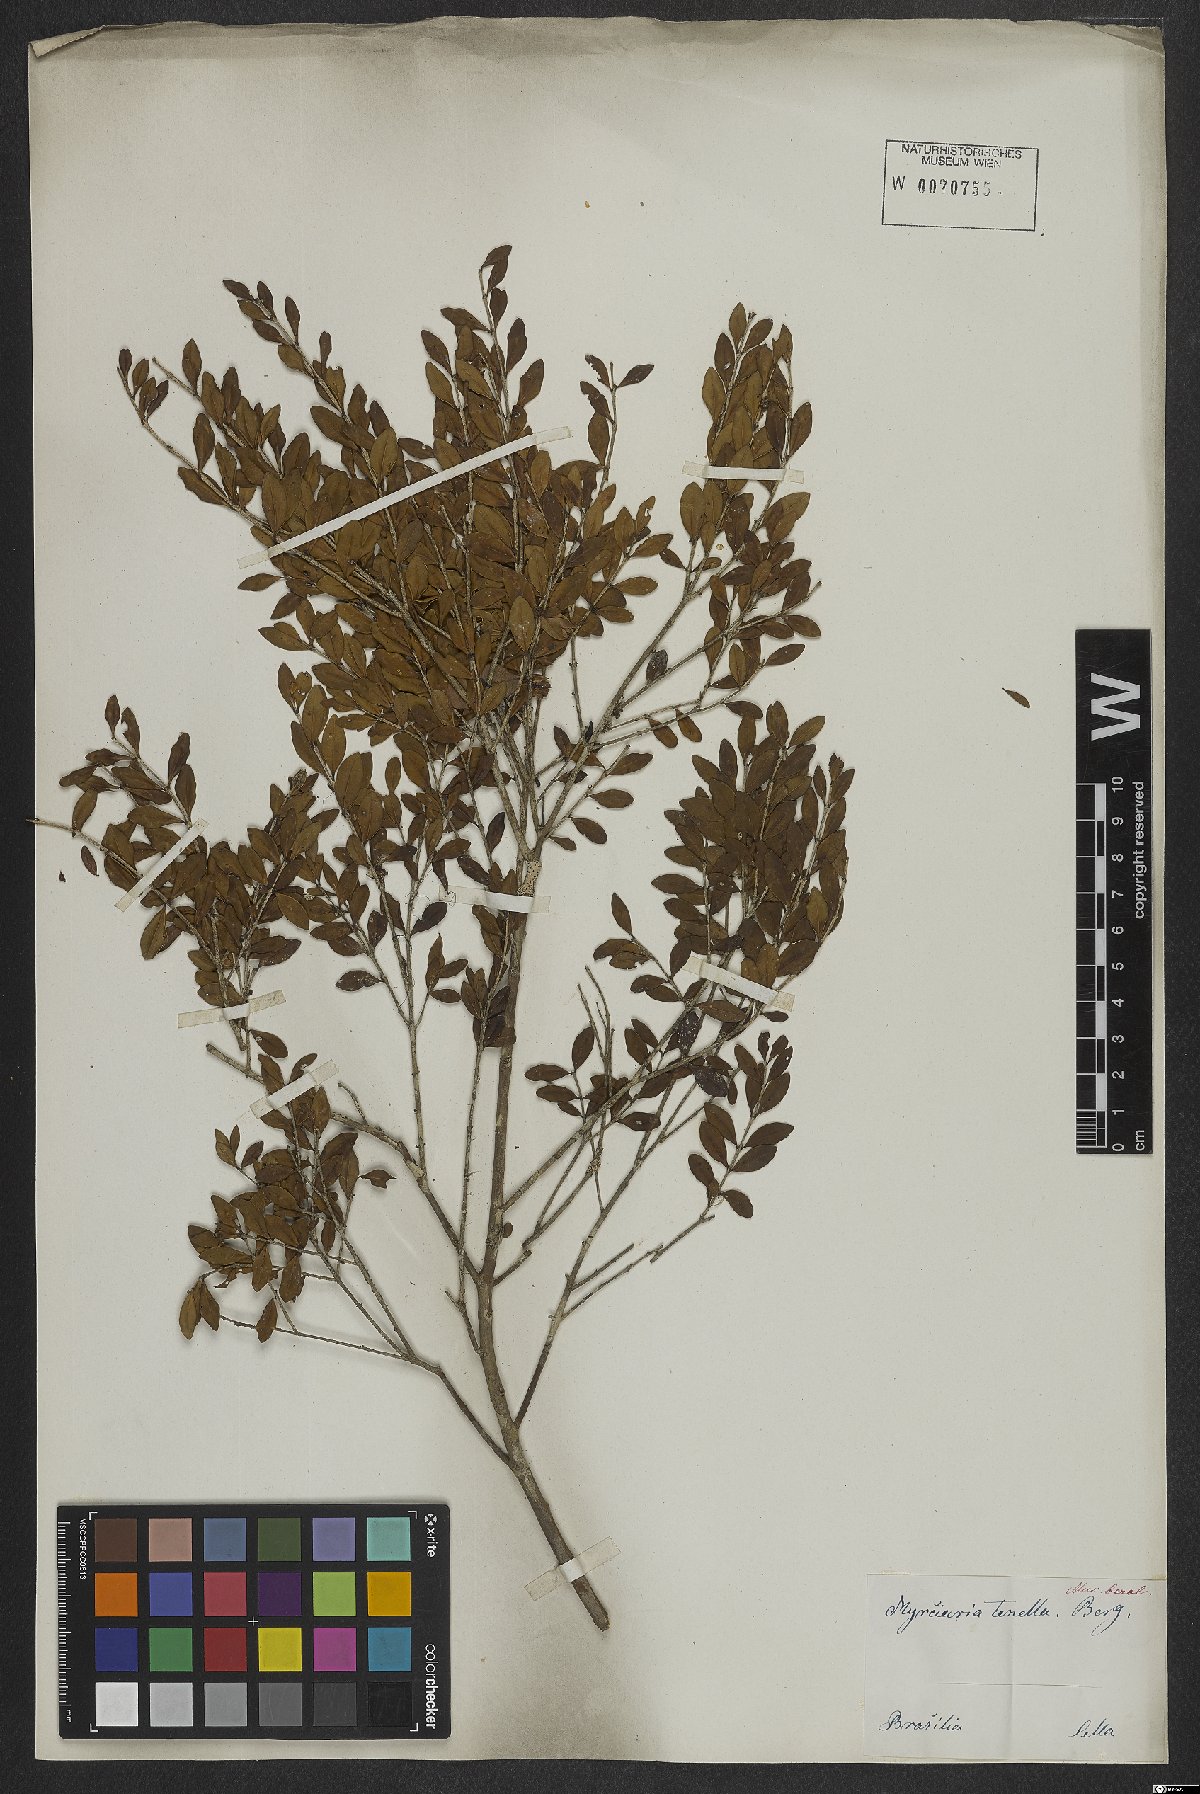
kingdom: Plantae
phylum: Tracheophyta
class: Magnoliopsida
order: Myrtales
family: Myrtaceae
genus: Myrciaria
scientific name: Myrciaria tenella
